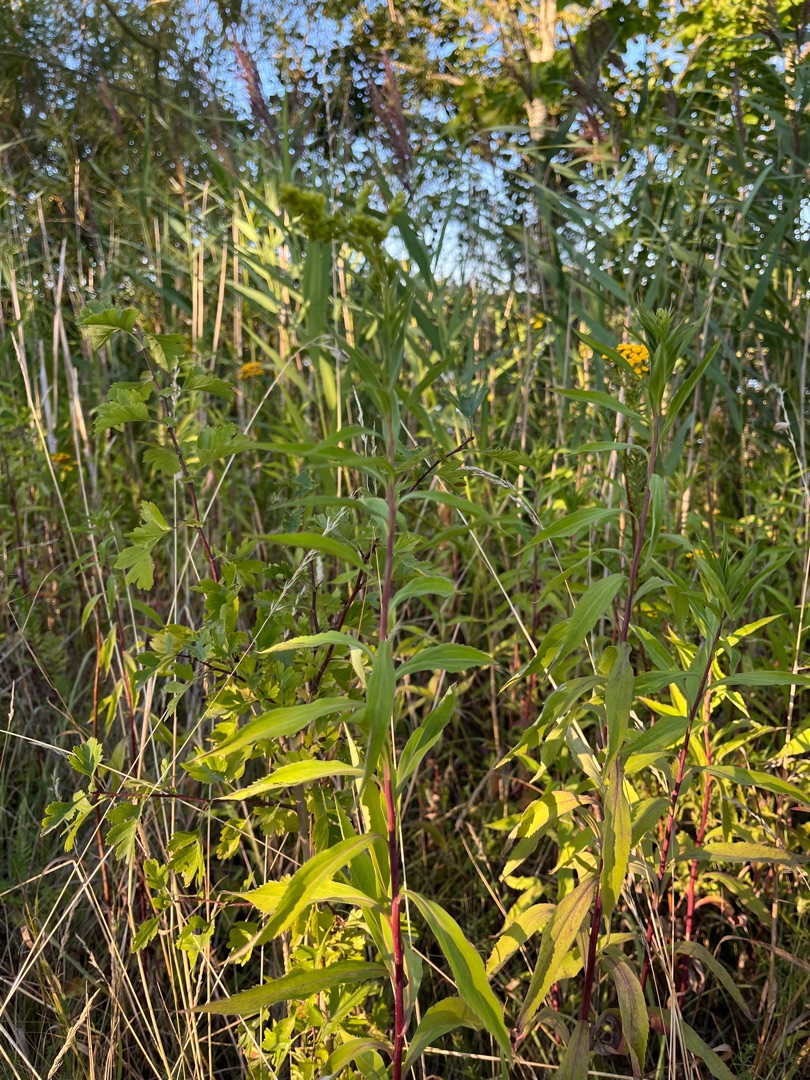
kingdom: Plantae
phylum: Tracheophyta
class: Magnoliopsida
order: Asterales
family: Asteraceae
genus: Solidago
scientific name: Solidago gigantea
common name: Sildig gyldenris
